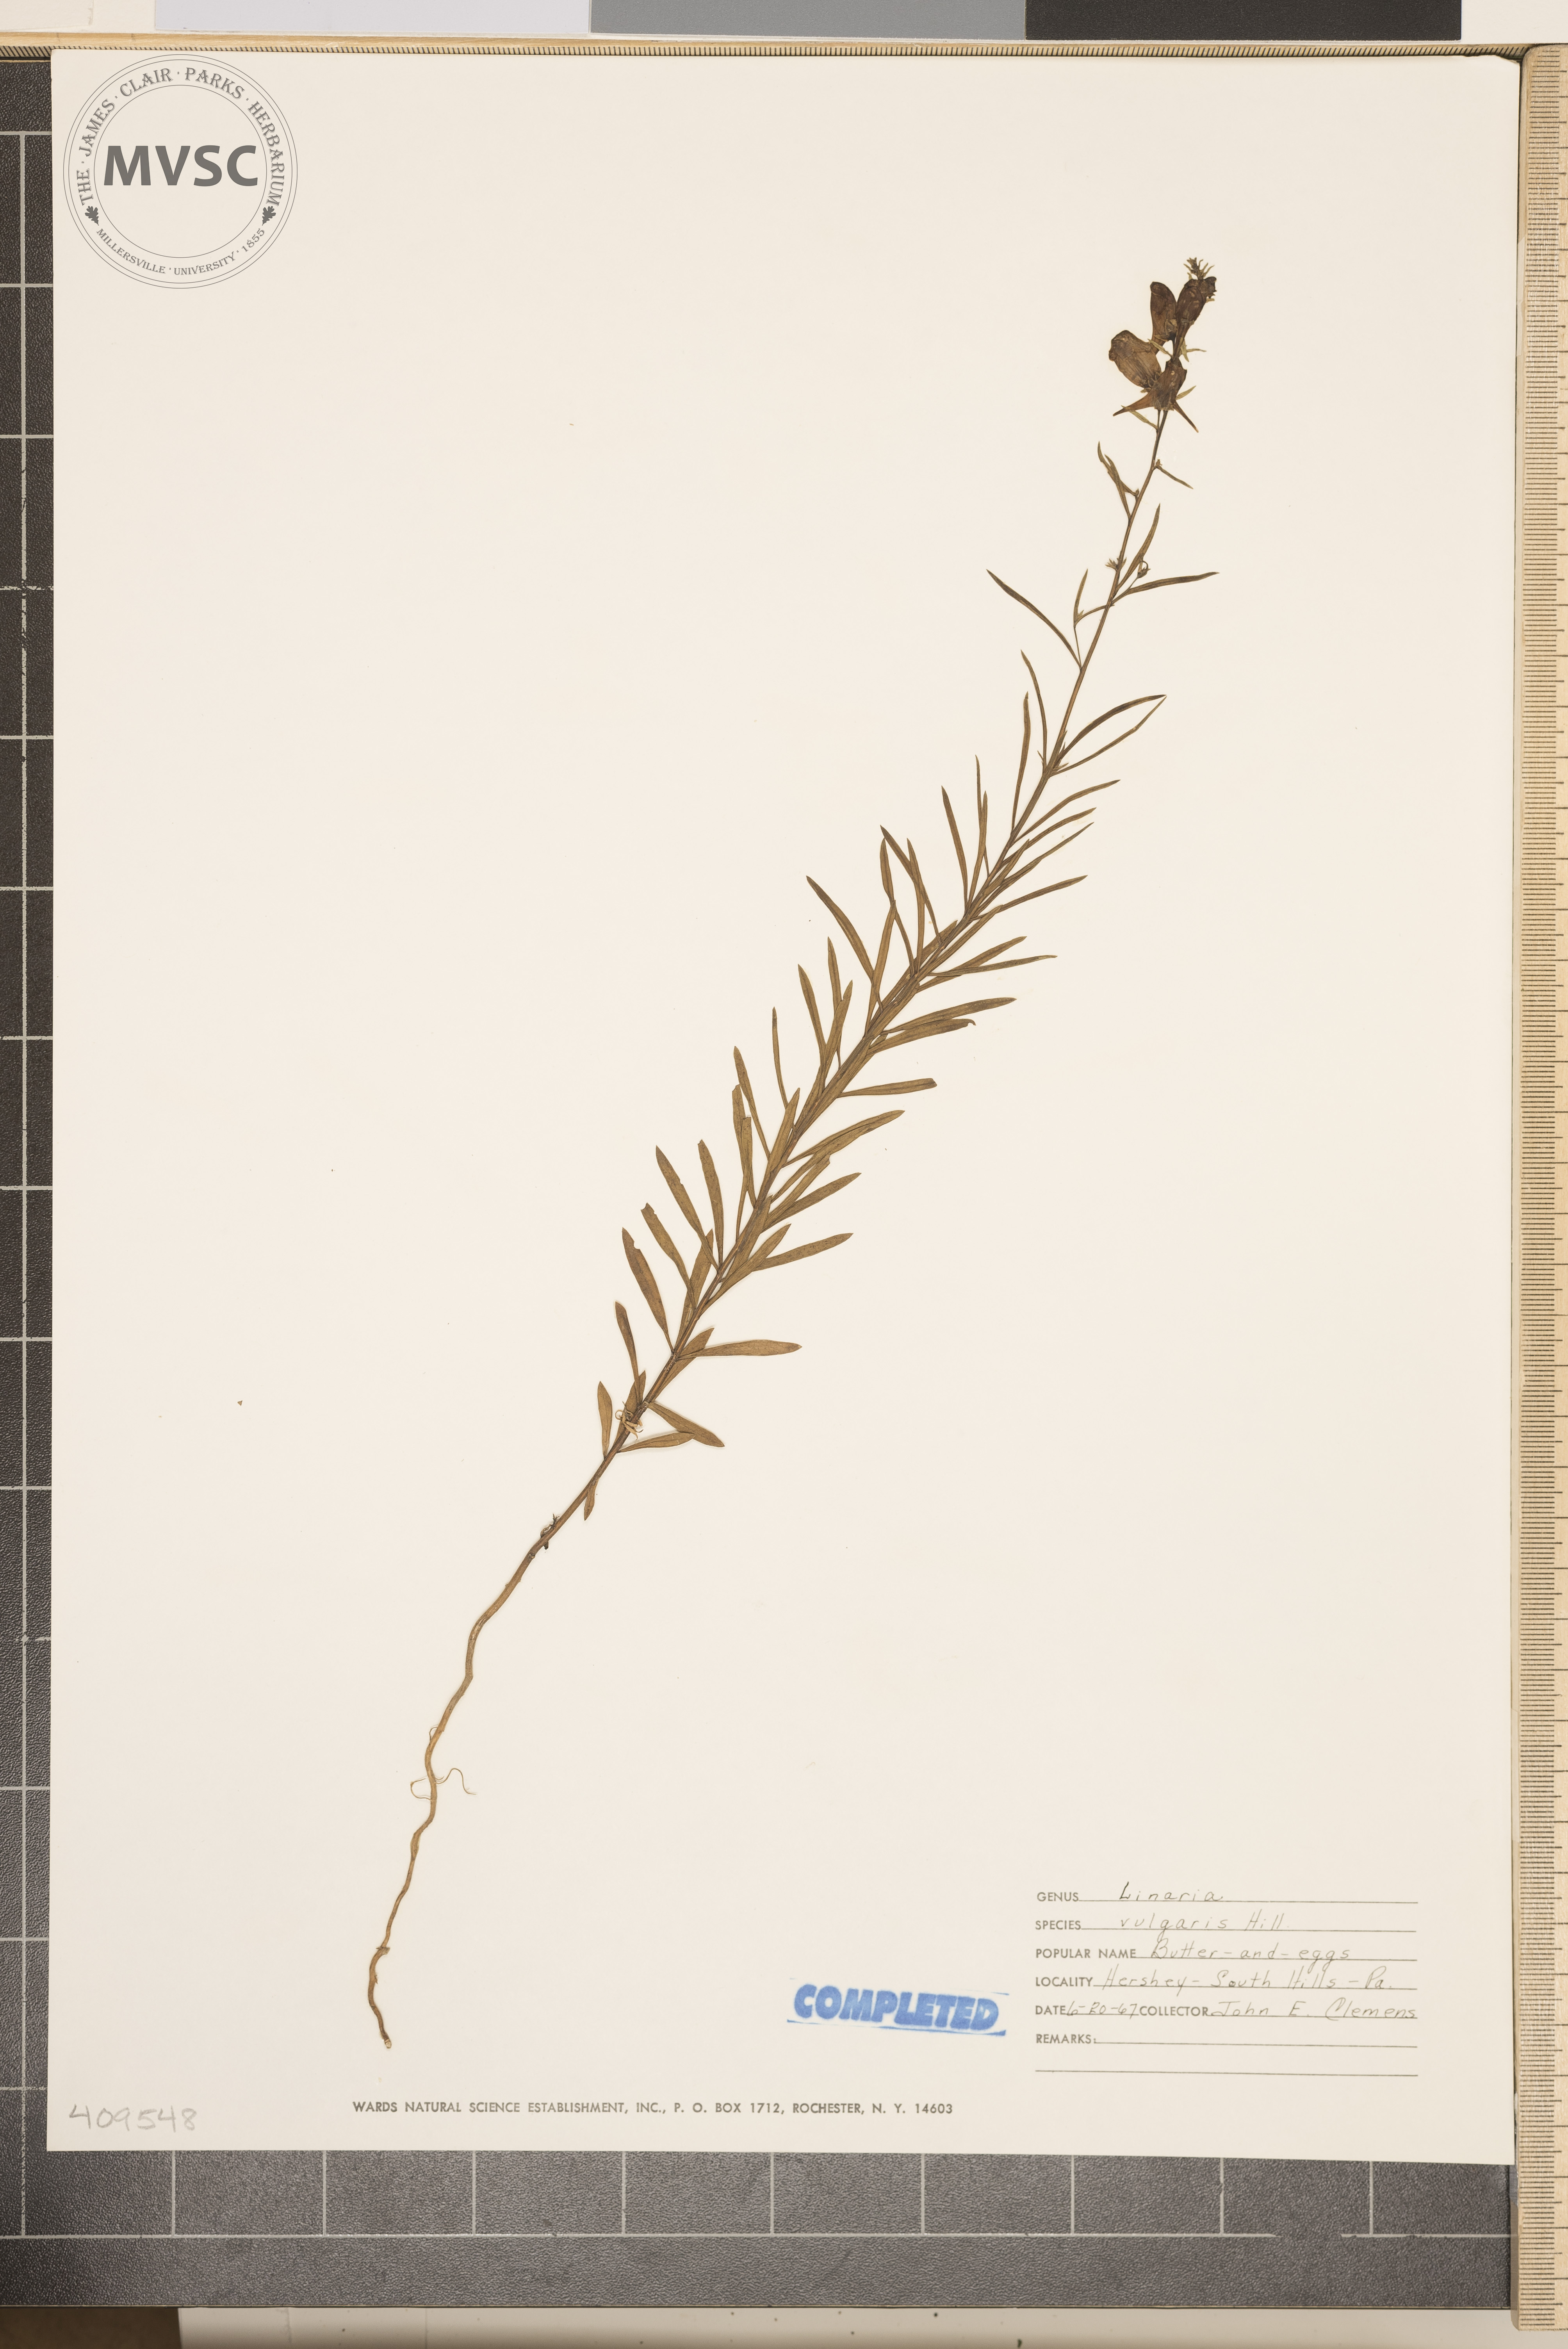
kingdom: Plantae
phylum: Tracheophyta
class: Magnoliopsida
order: Lamiales
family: Plantaginaceae
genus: Linaria
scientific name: Linaria vulgaris
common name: Butter and eggs
